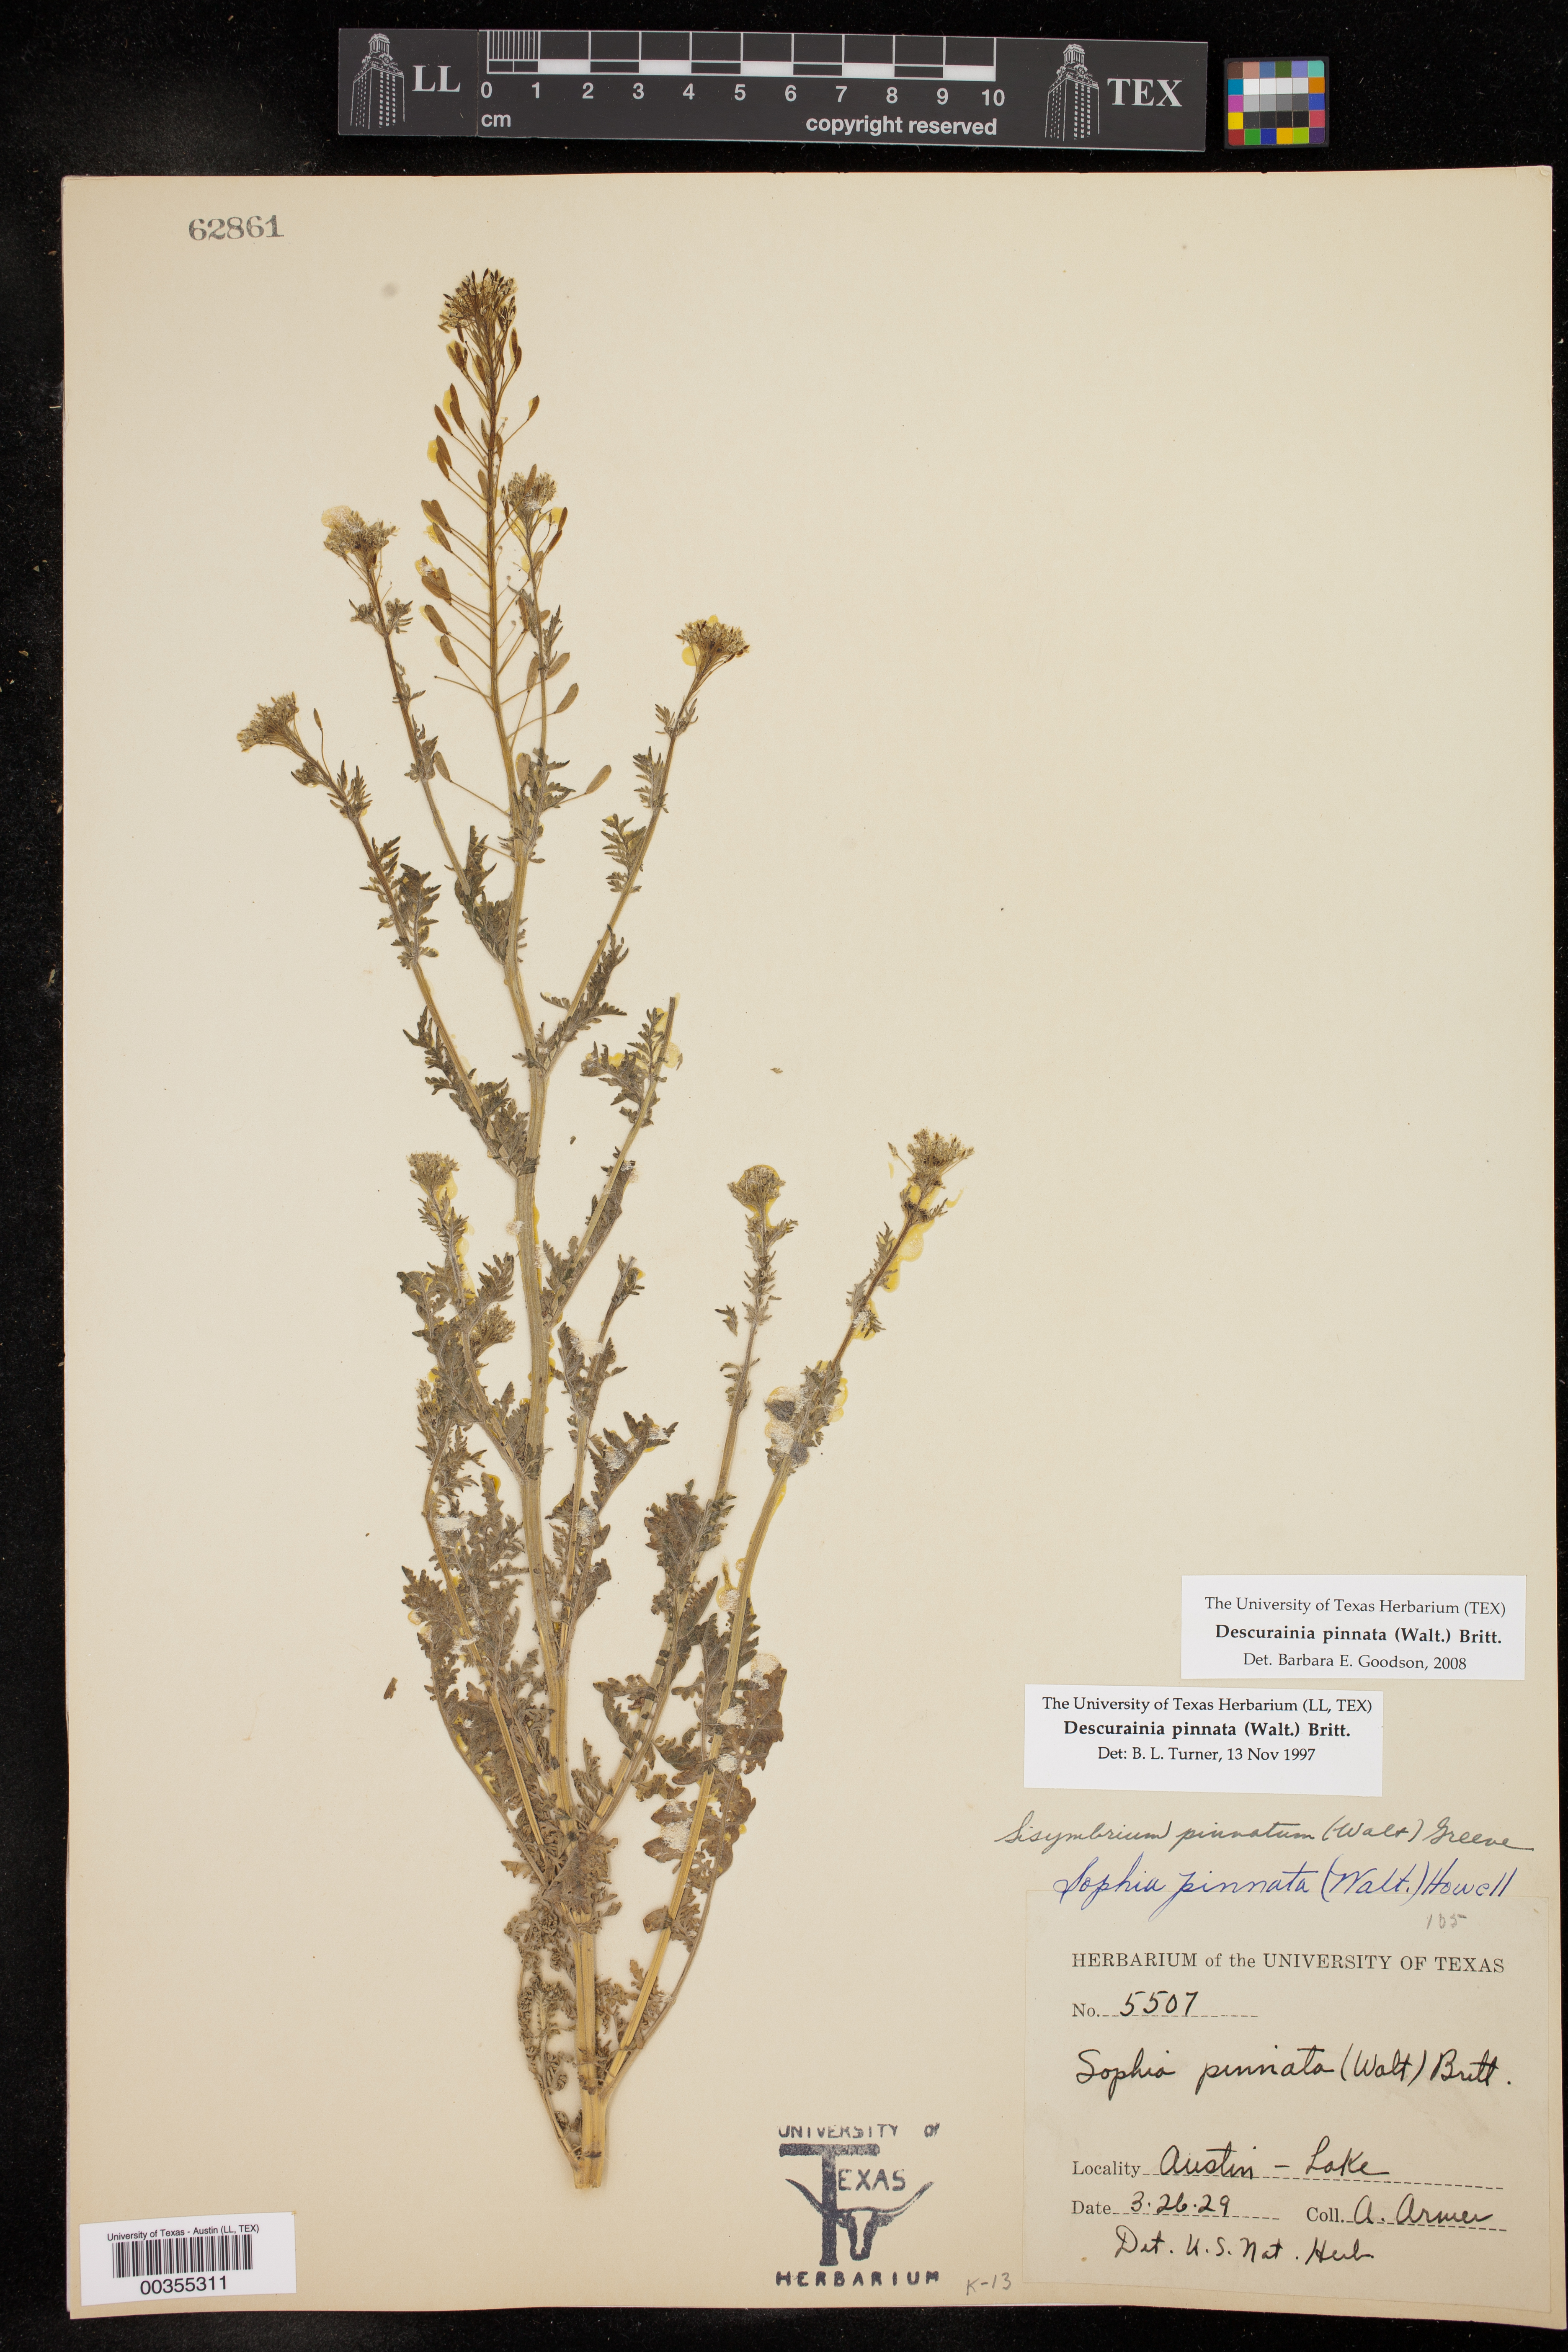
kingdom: Plantae
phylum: Tracheophyta
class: Magnoliopsida
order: Brassicales
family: Brassicaceae
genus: Descurainia
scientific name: Descurainia pinnata
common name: Western tansy mustard
